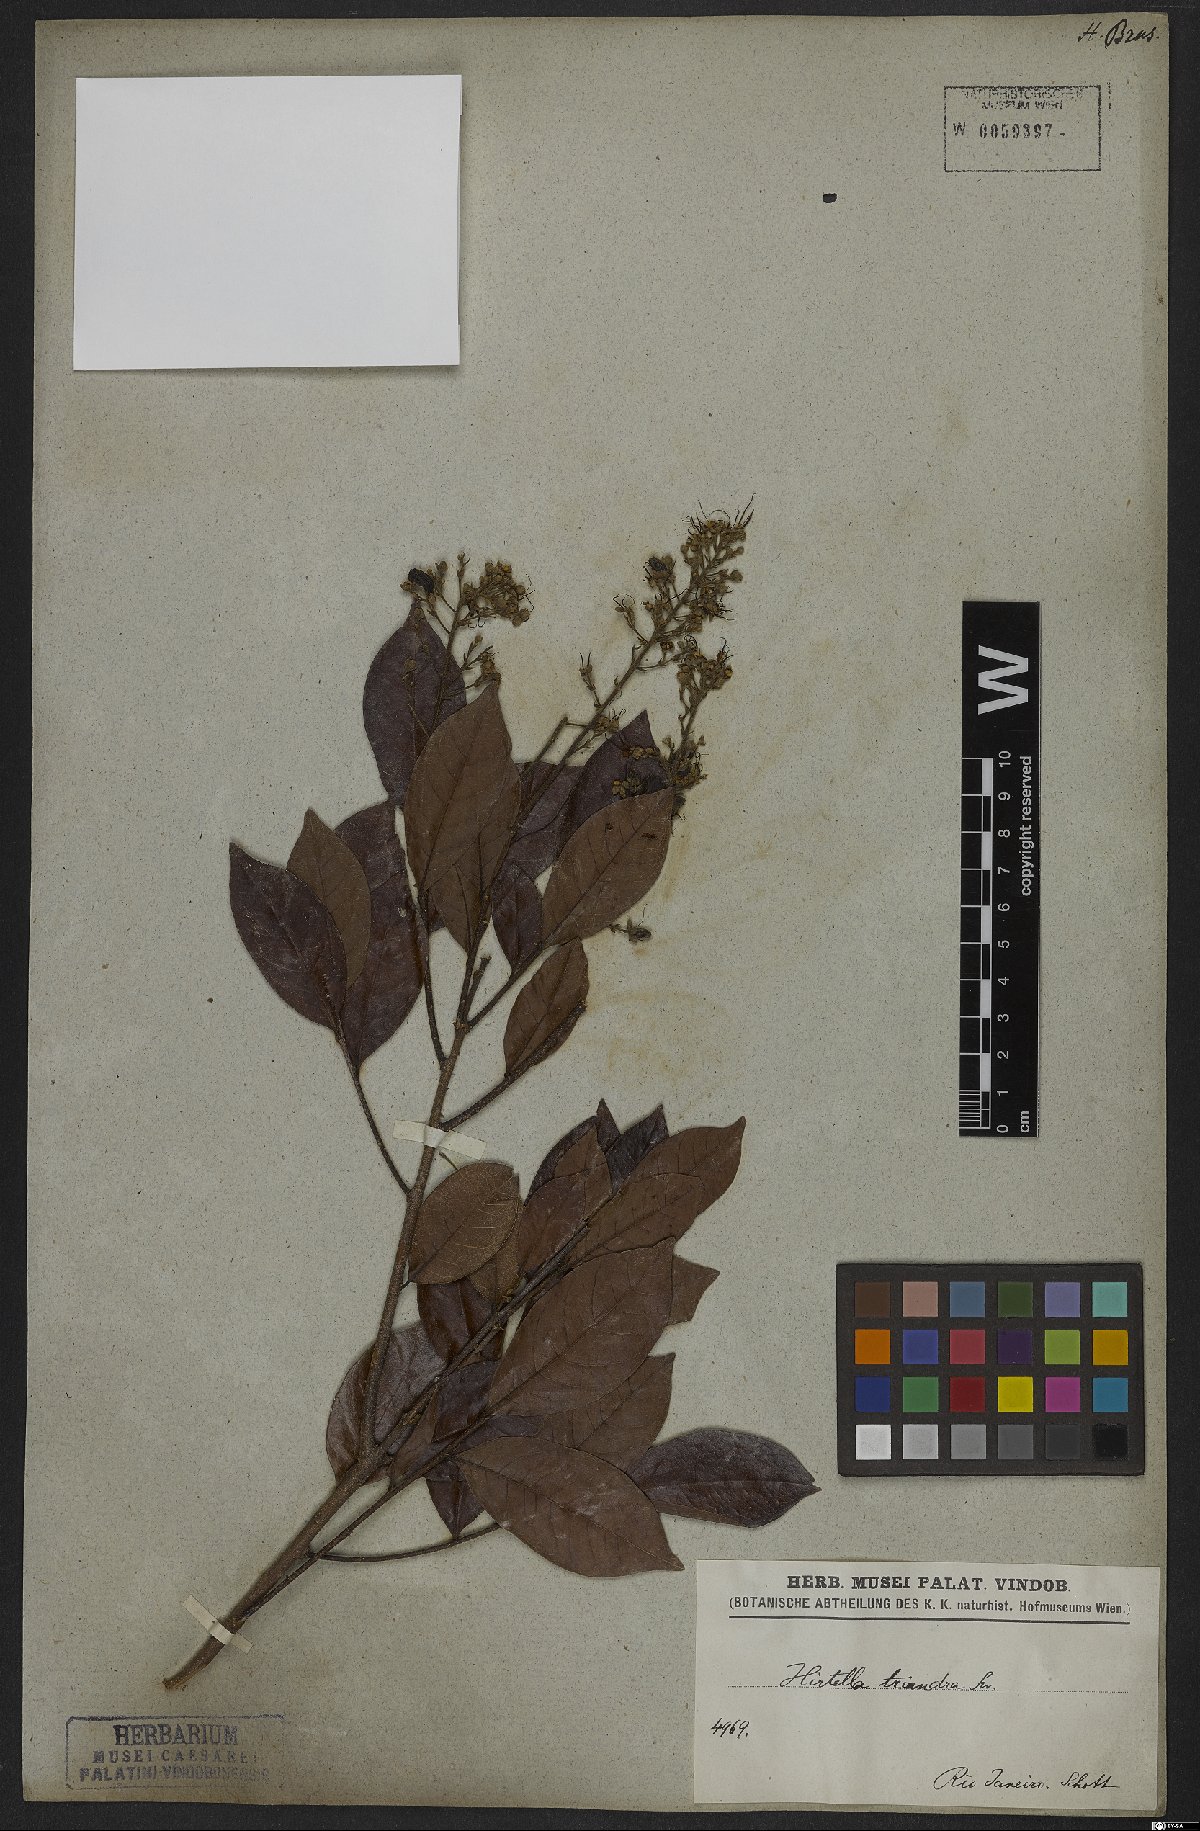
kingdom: Plantae
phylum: Tracheophyta
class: Magnoliopsida
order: Malpighiales
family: Chrysobalanaceae
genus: Hirtella
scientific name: Hirtella triandra
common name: Hairy plum
